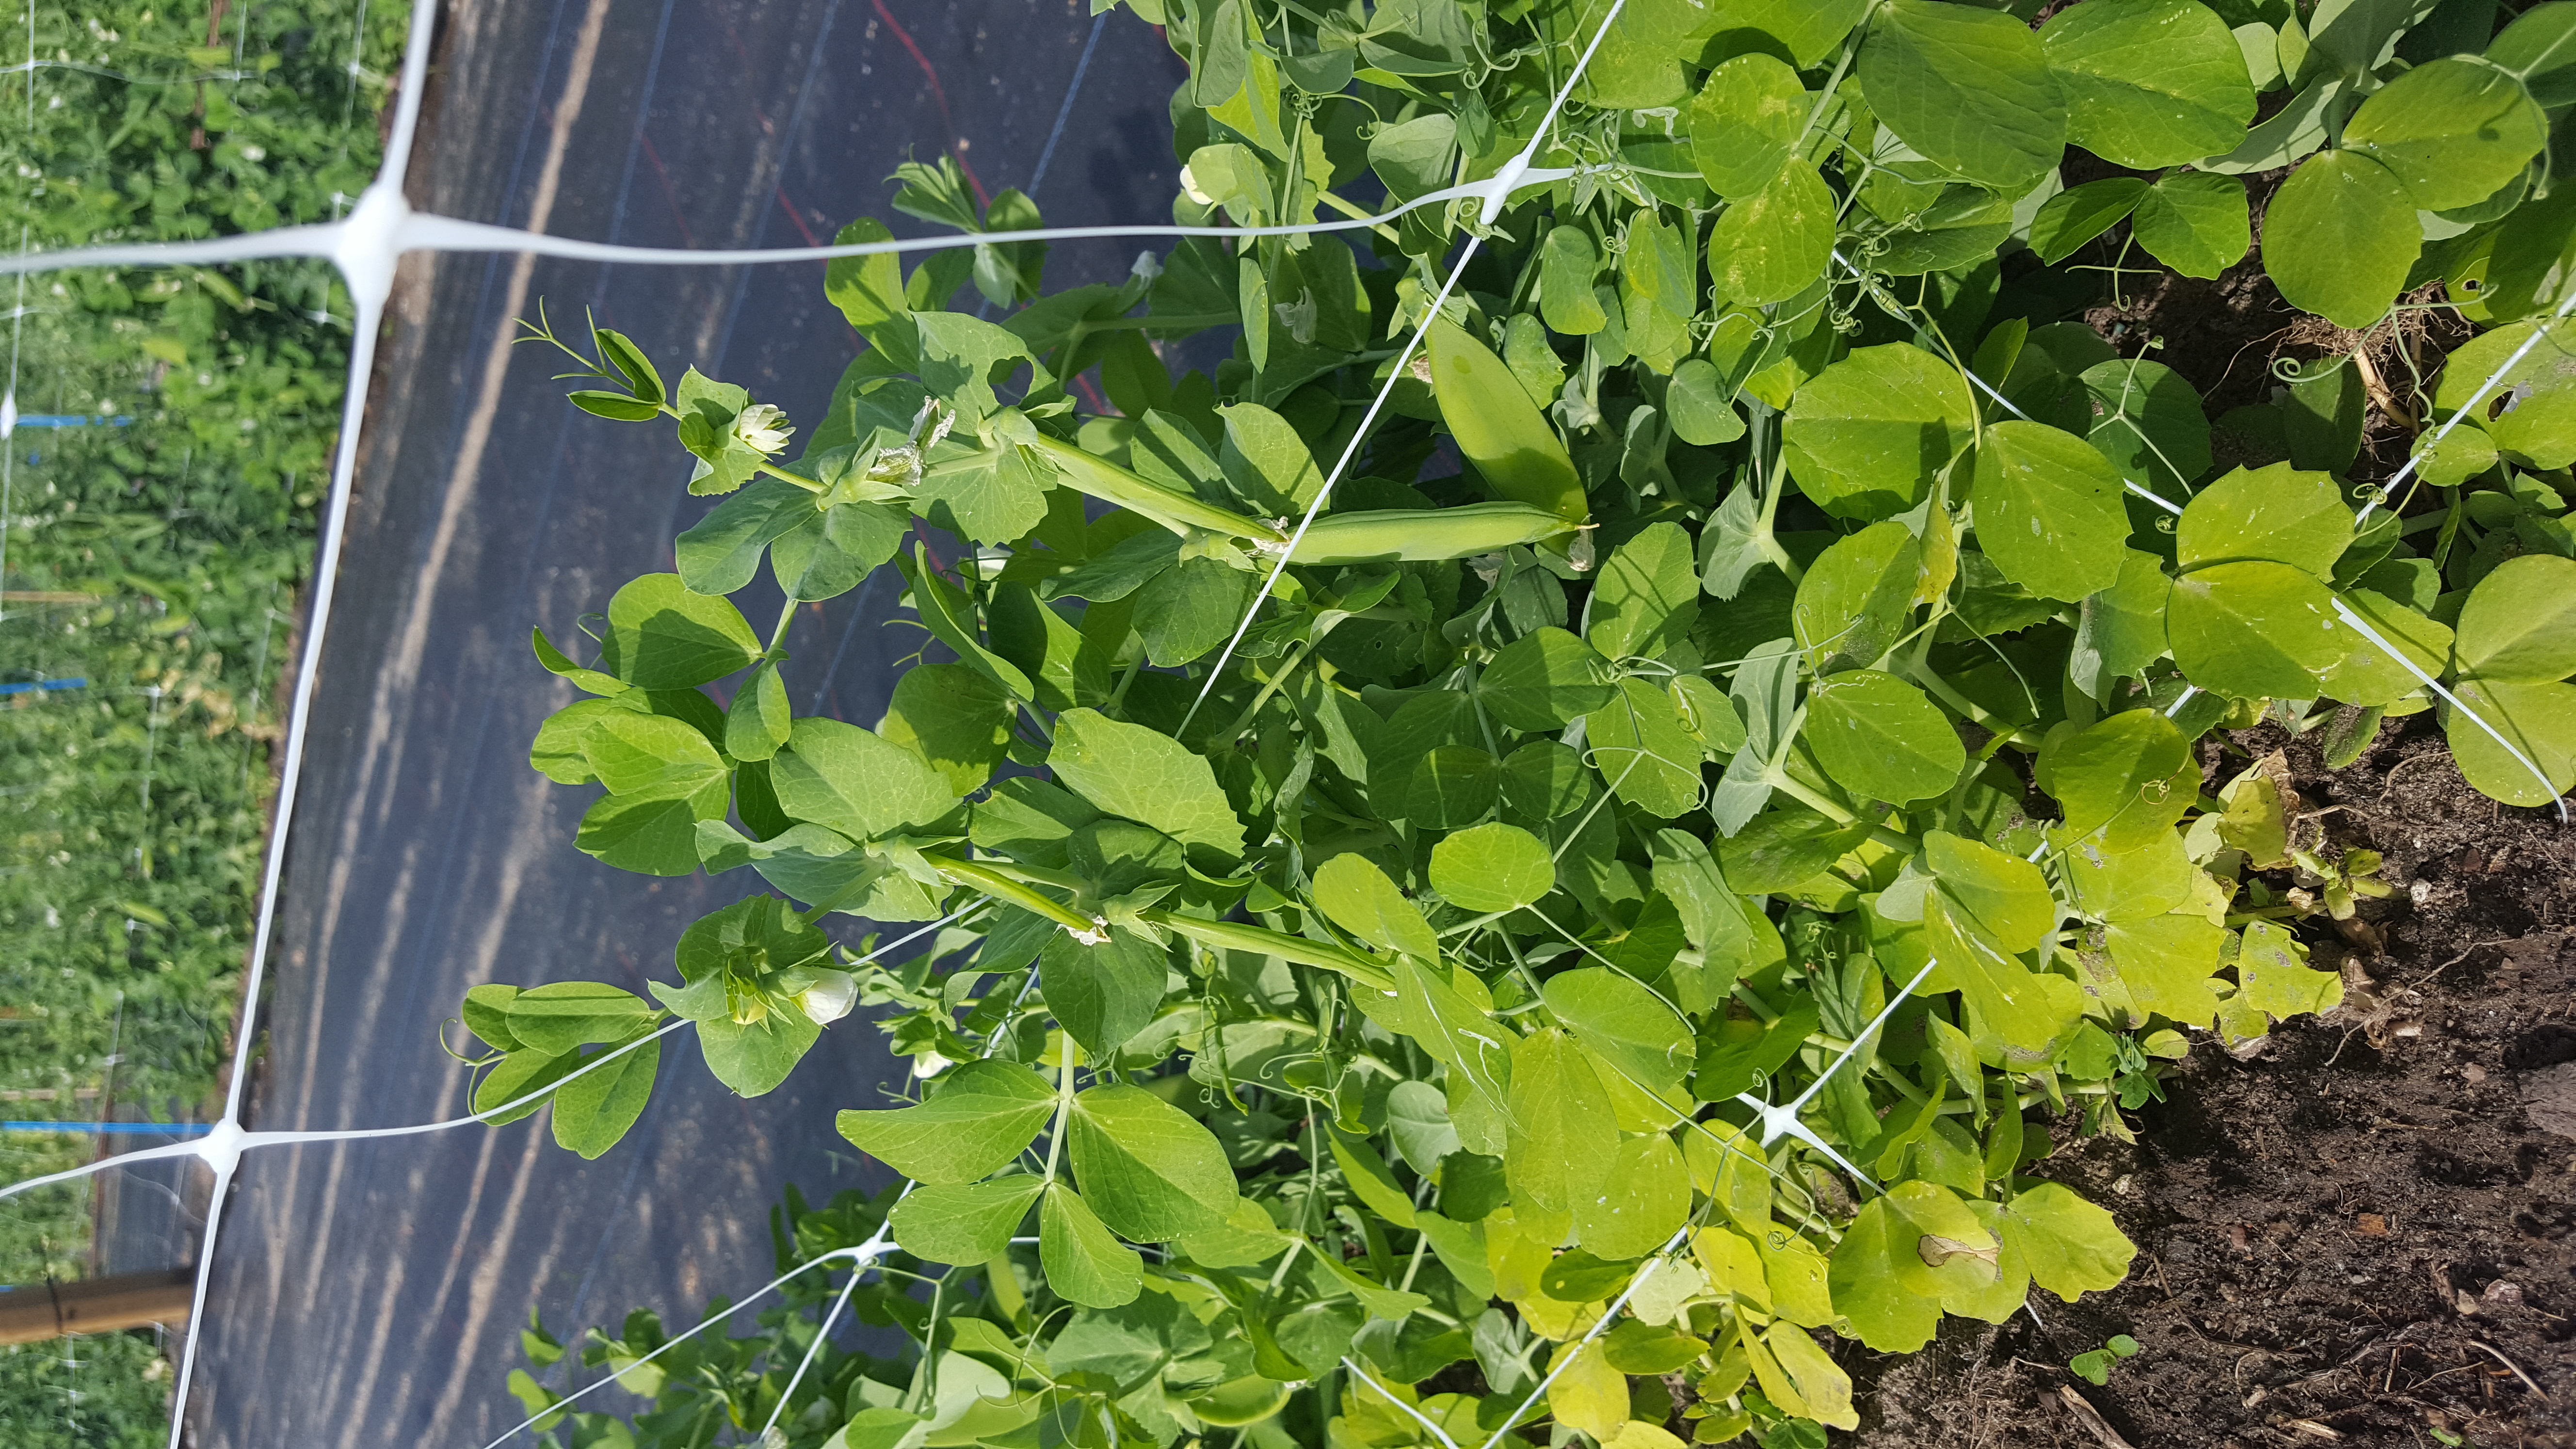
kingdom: Plantae
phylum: Tracheophyta
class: Magnoliopsida
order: Fabales
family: Fabaceae
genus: Lathyrus
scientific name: Lathyrus oleraceus
